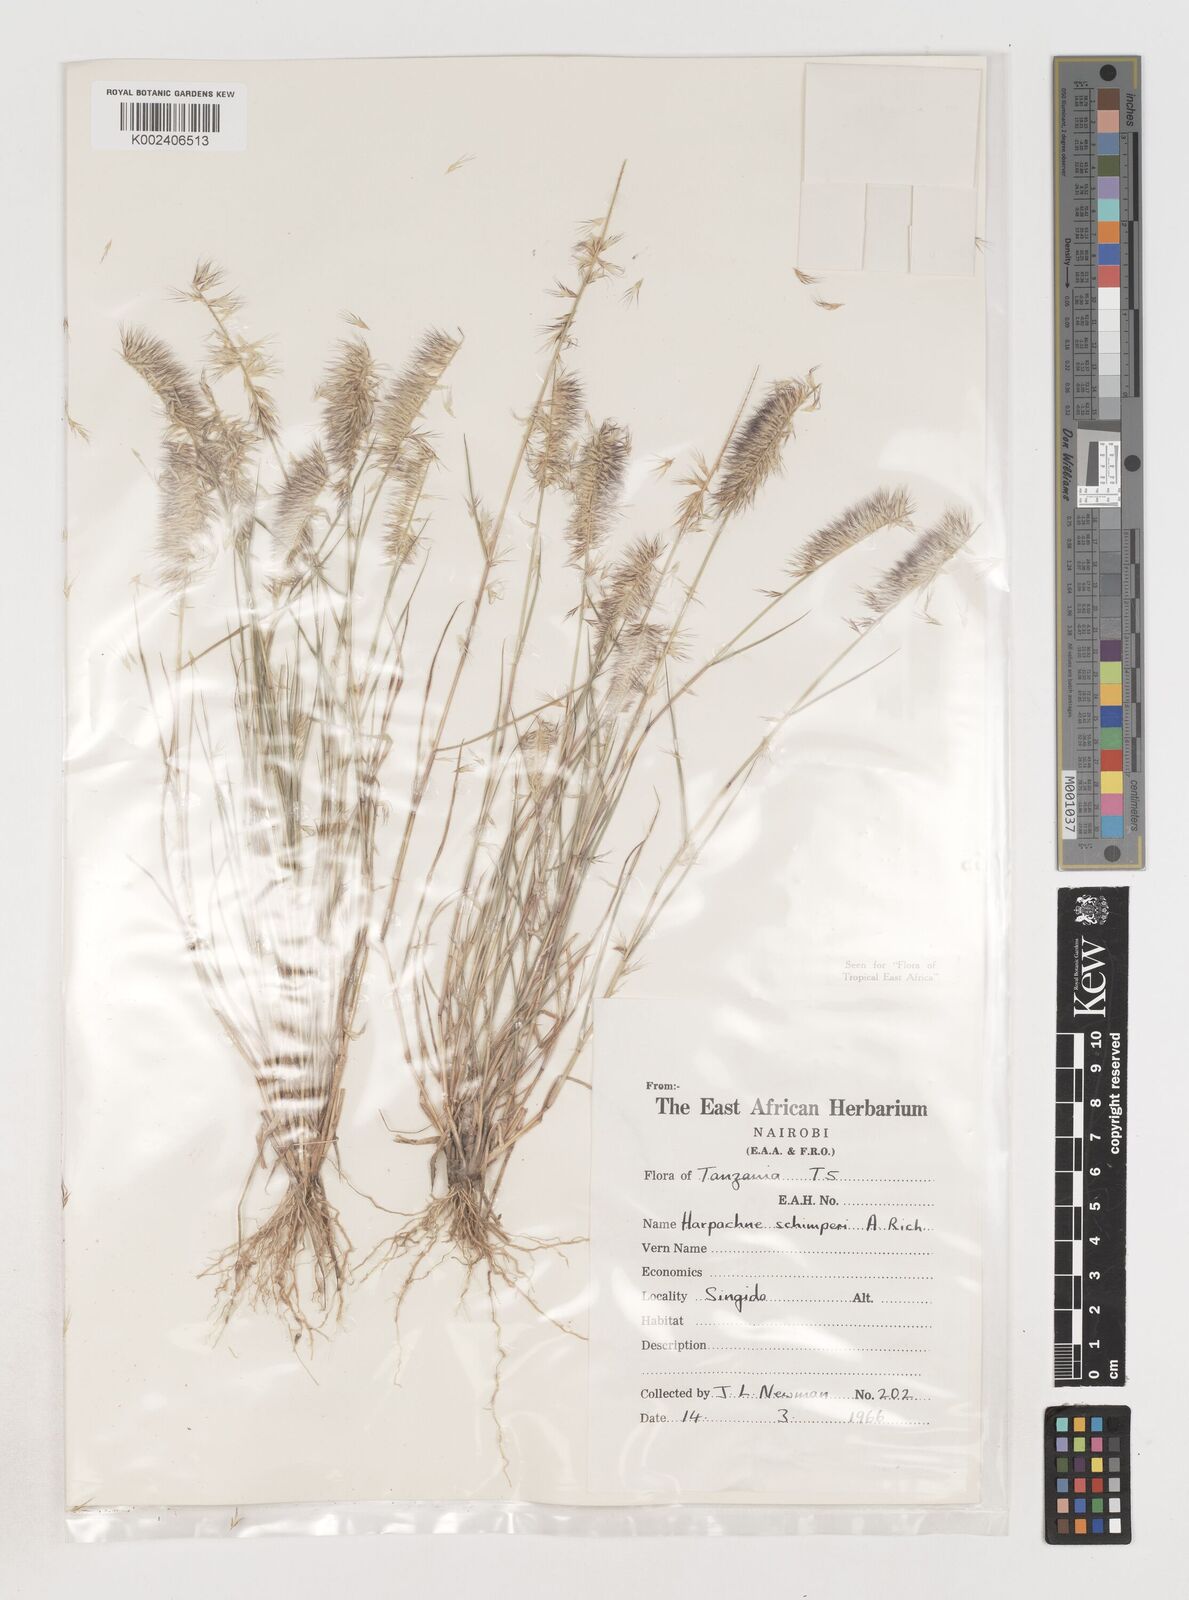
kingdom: Plantae
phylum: Tracheophyta
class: Liliopsida
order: Poales
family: Poaceae
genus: Harpachne
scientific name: Harpachne schimperi
